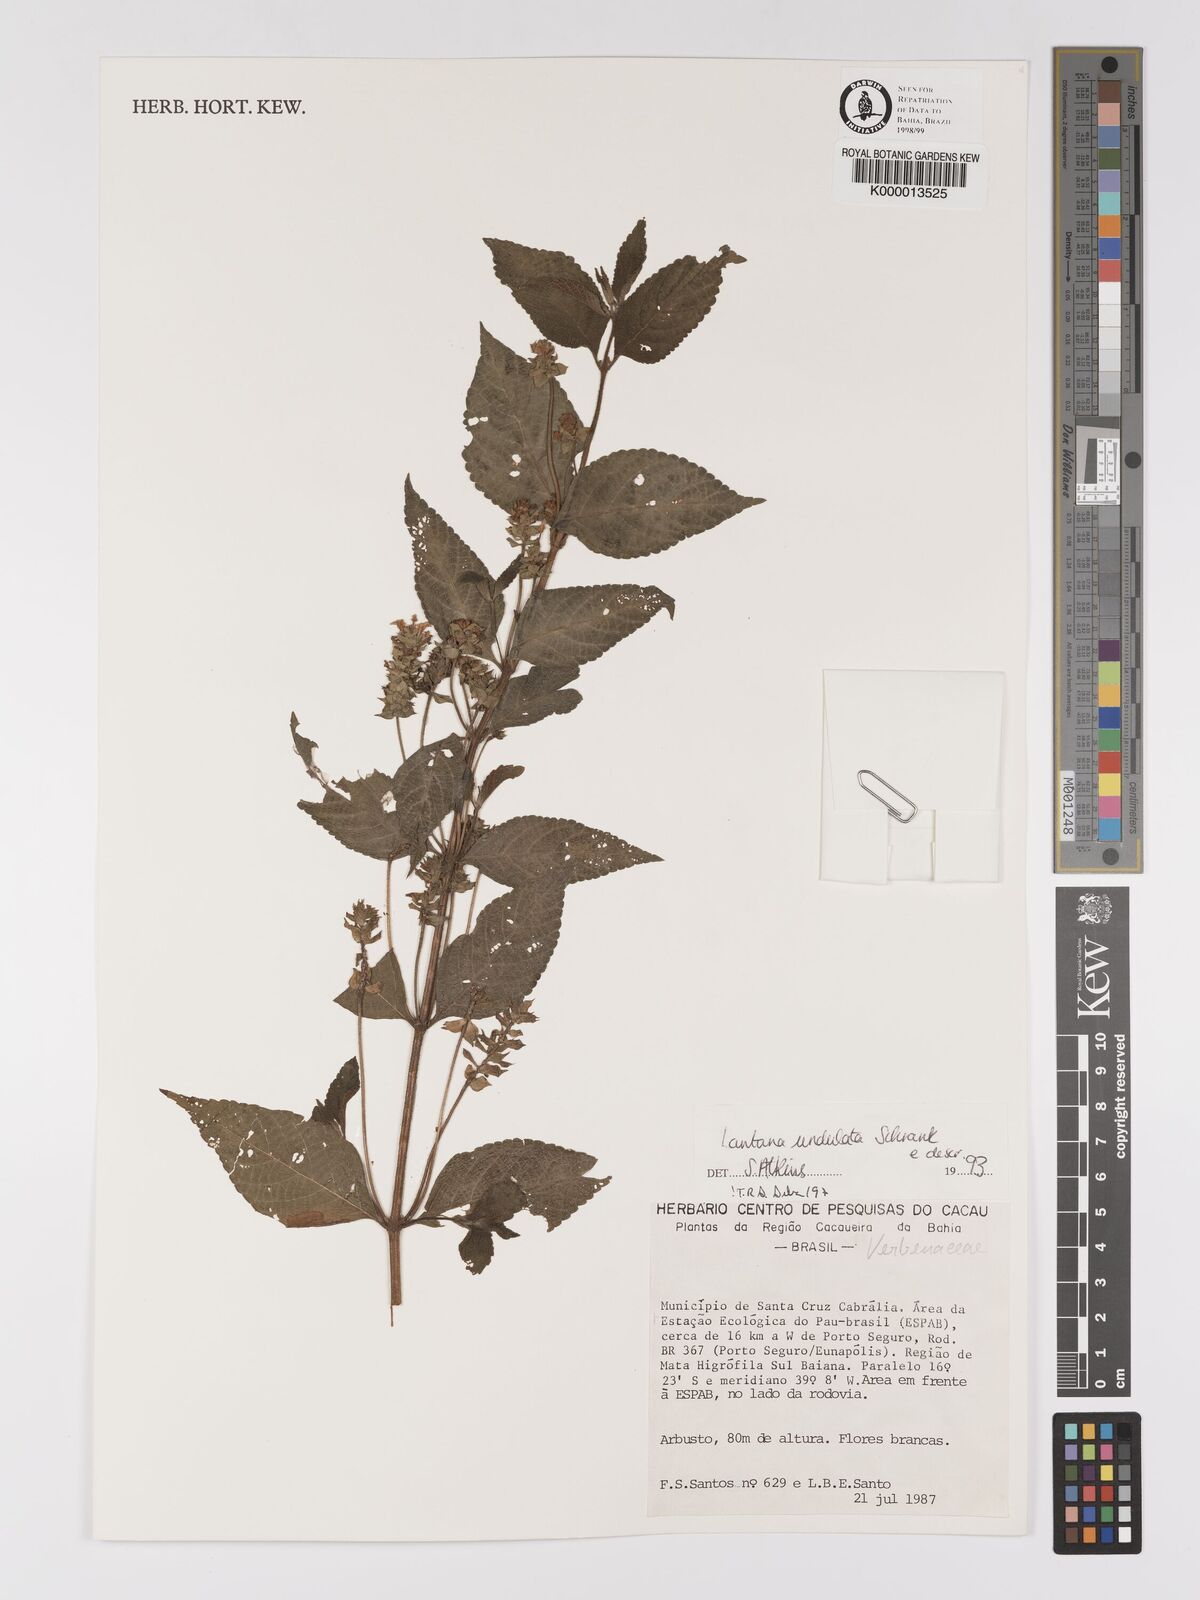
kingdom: Plantae
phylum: Tracheophyta
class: Magnoliopsida
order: Lamiales
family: Verbenaceae
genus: Lantana
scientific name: Lantana undulata
